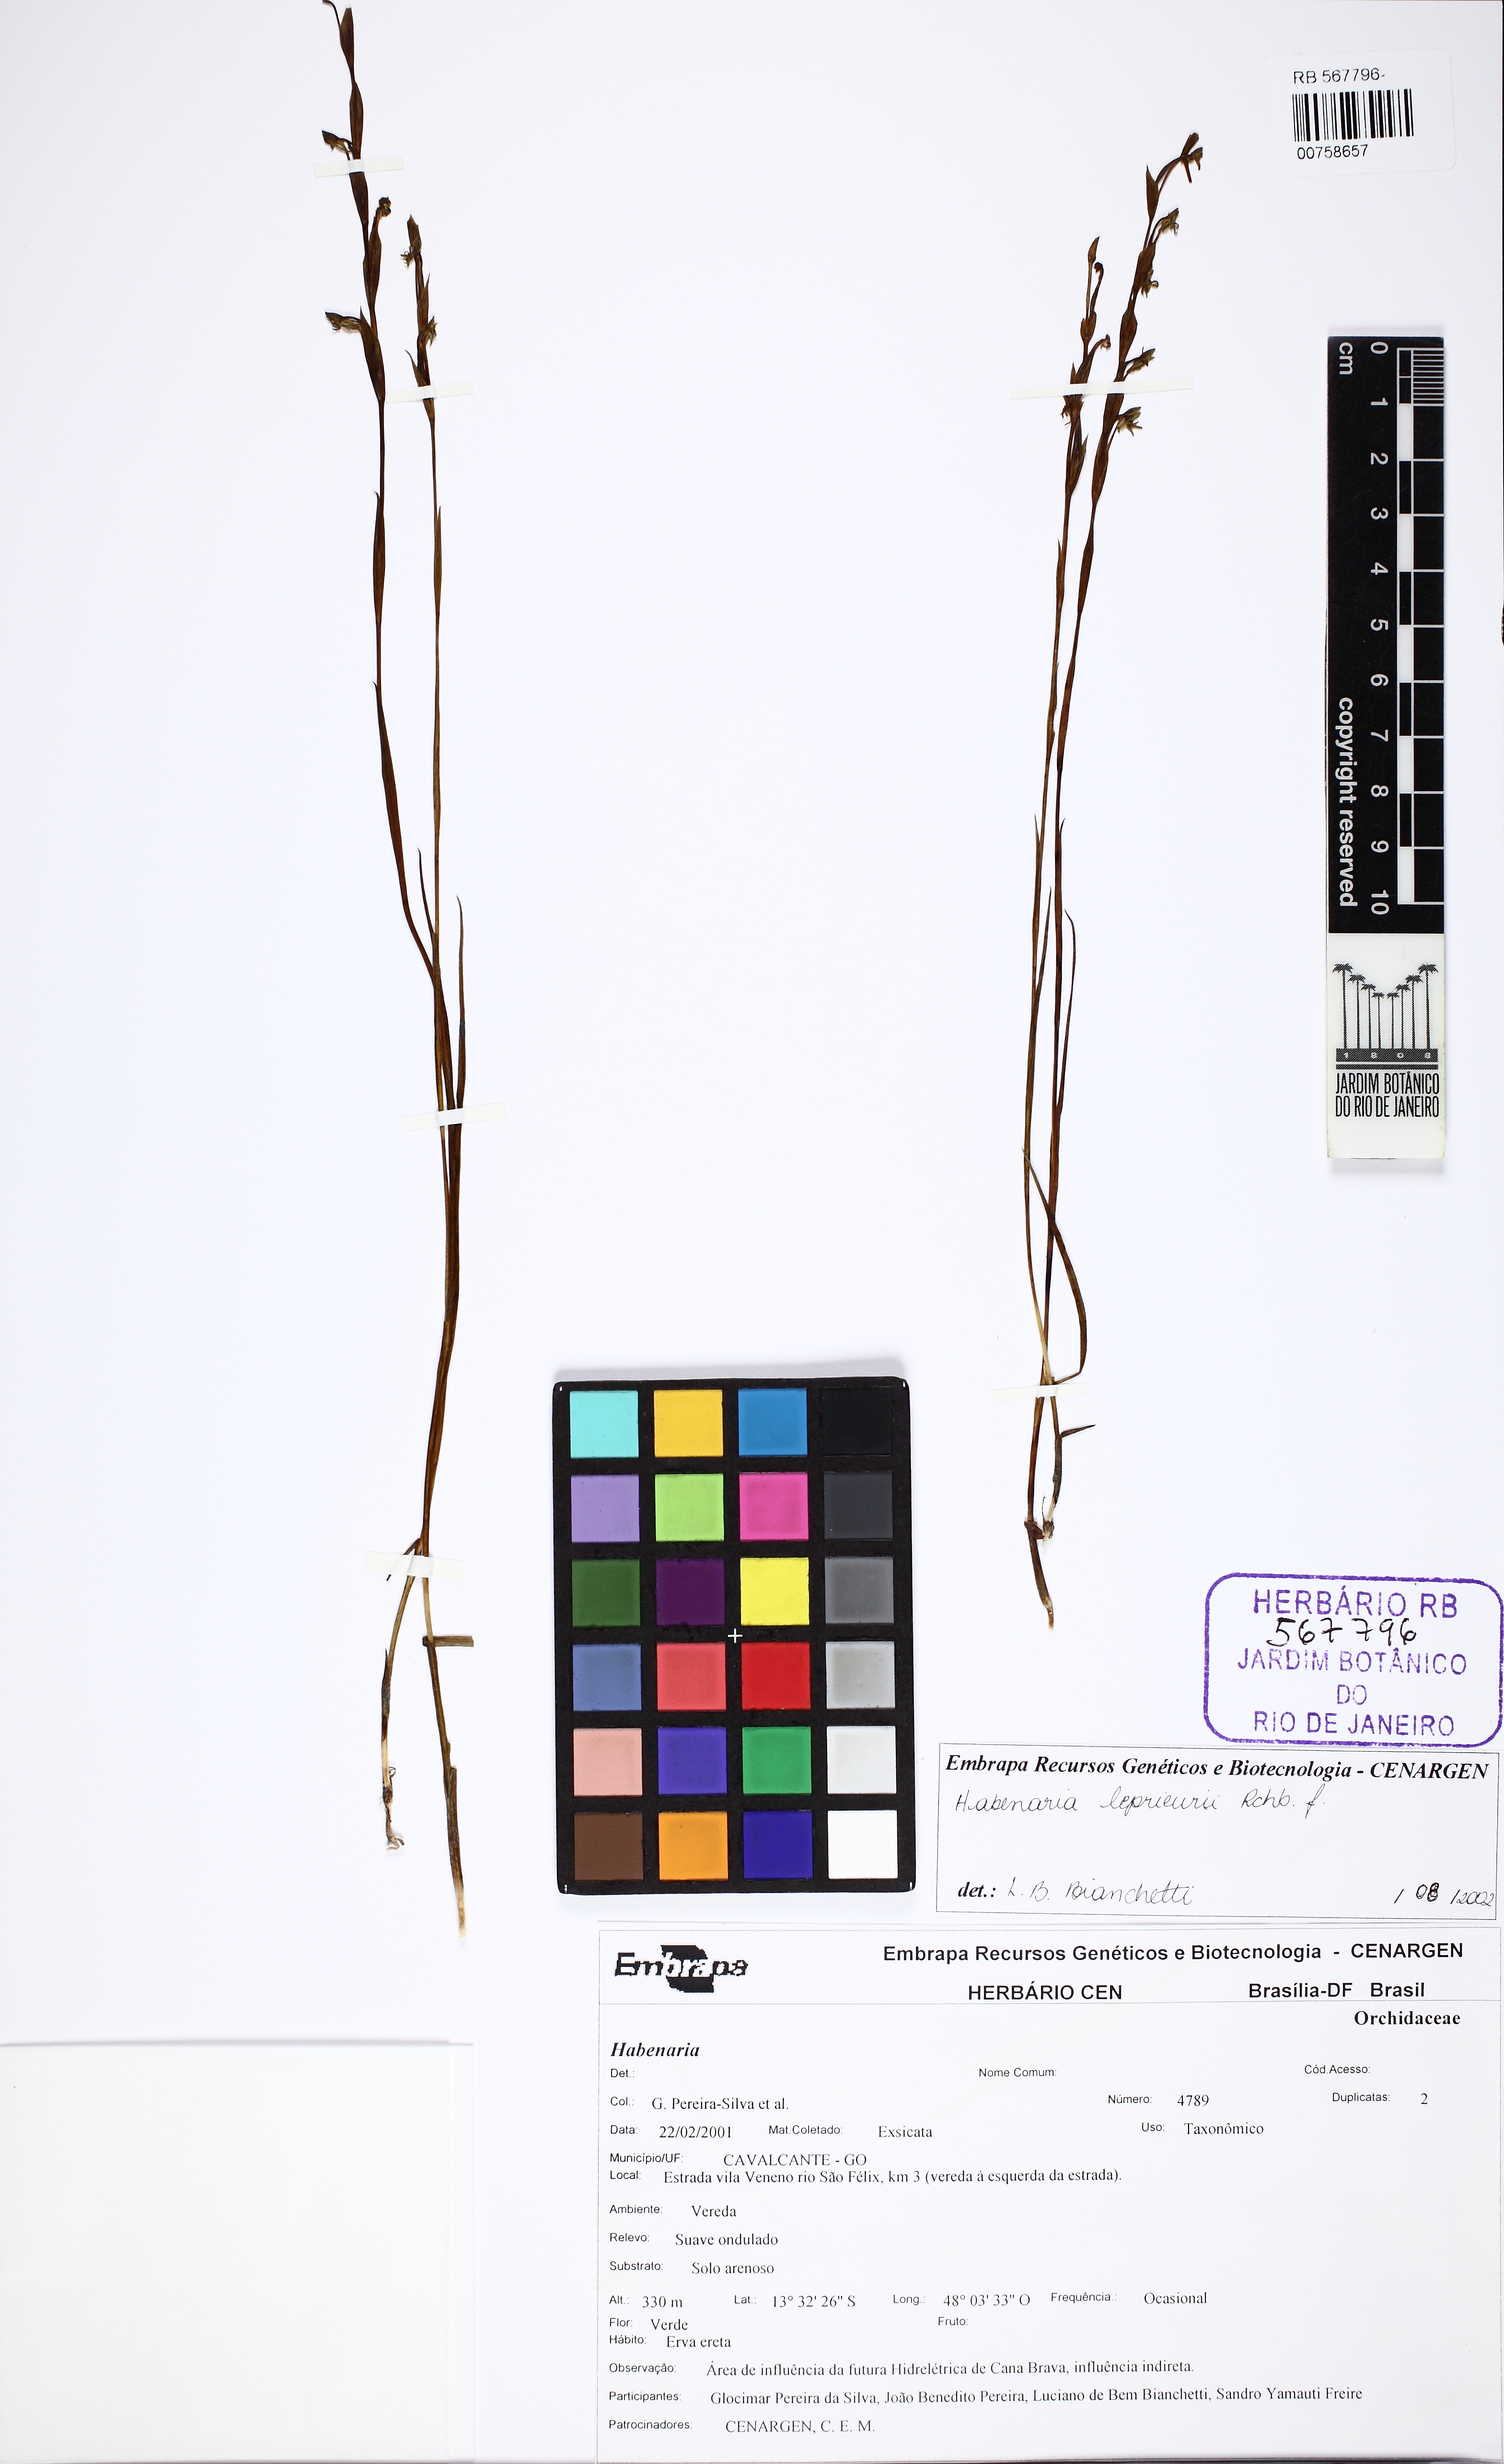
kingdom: Plantae
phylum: Tracheophyta
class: Liliopsida
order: Asparagales
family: Orchidaceae
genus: Habenaria
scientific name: Habenaria leprieurii
